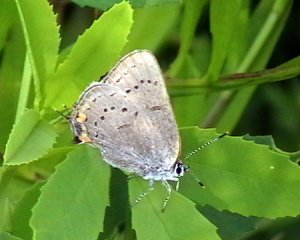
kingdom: Animalia
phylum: Arthropoda
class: Insecta
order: Lepidoptera
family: Lycaenidae
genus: Strymon
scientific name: Strymon acadica
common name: Acadian Hairstreak
